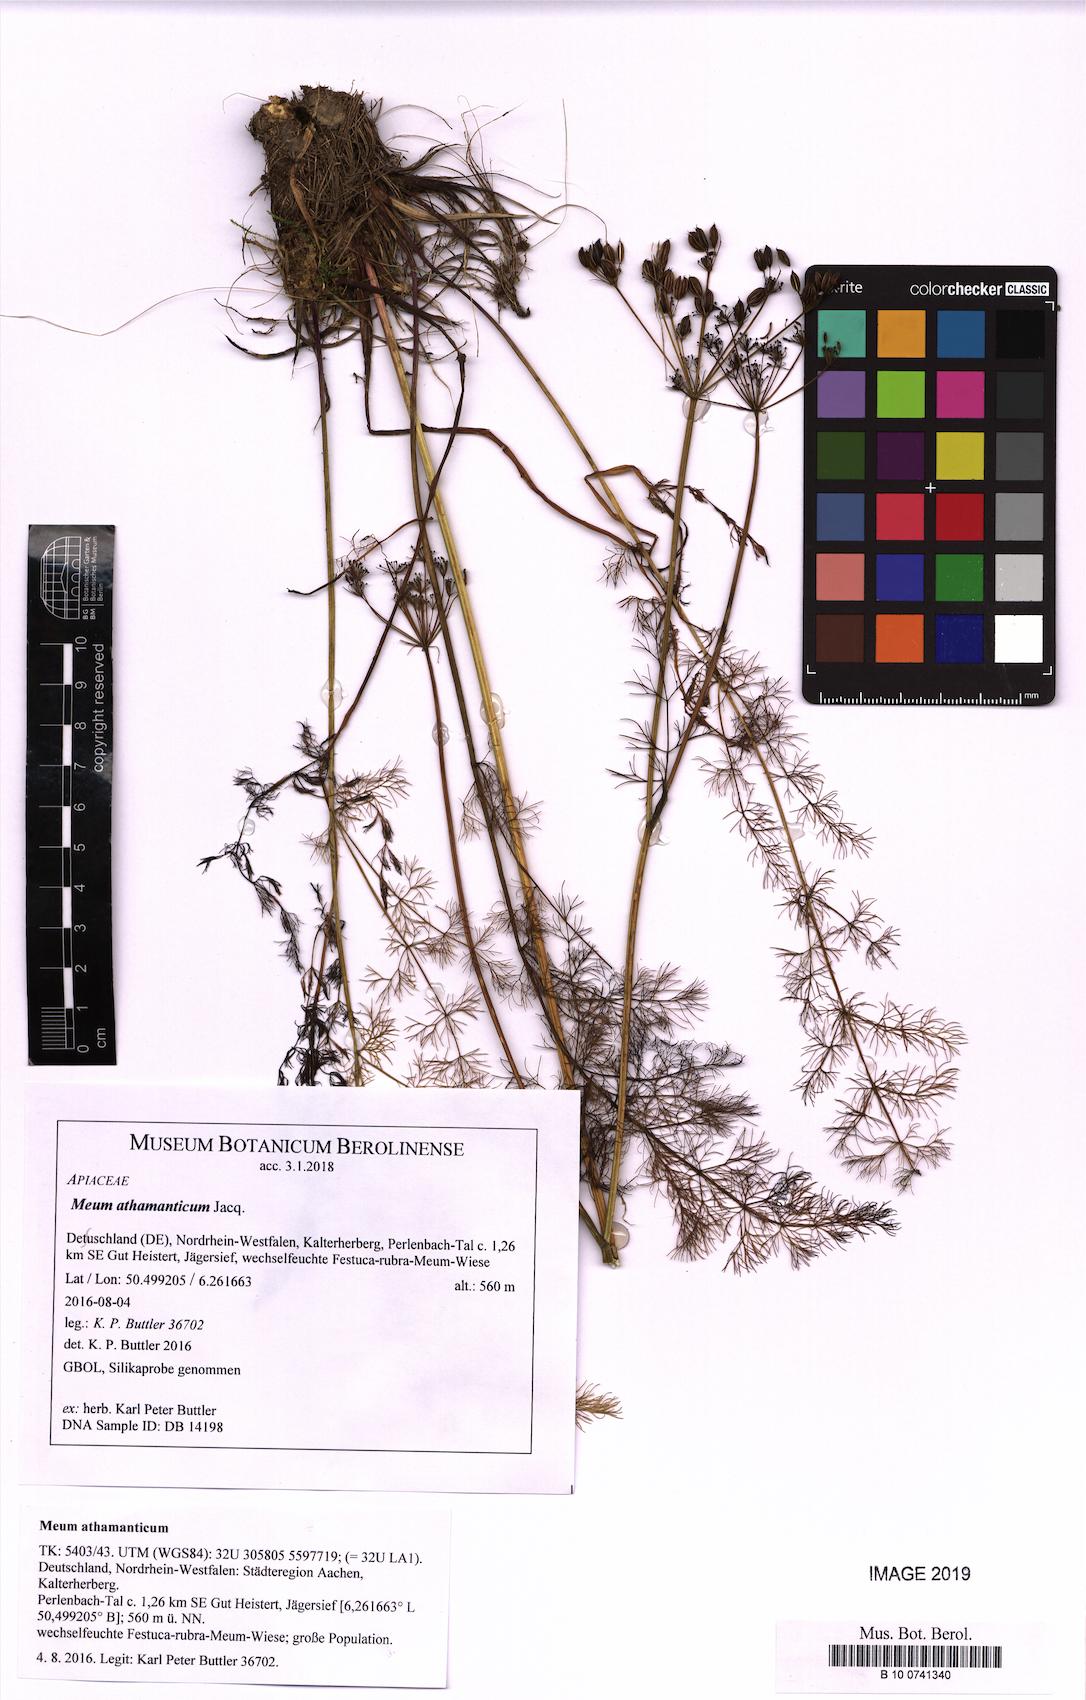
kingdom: Plantae
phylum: Tracheophyta
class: Magnoliopsida
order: Apiales
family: Apiaceae
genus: Meum
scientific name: Meum athamanticum
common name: Spignel
